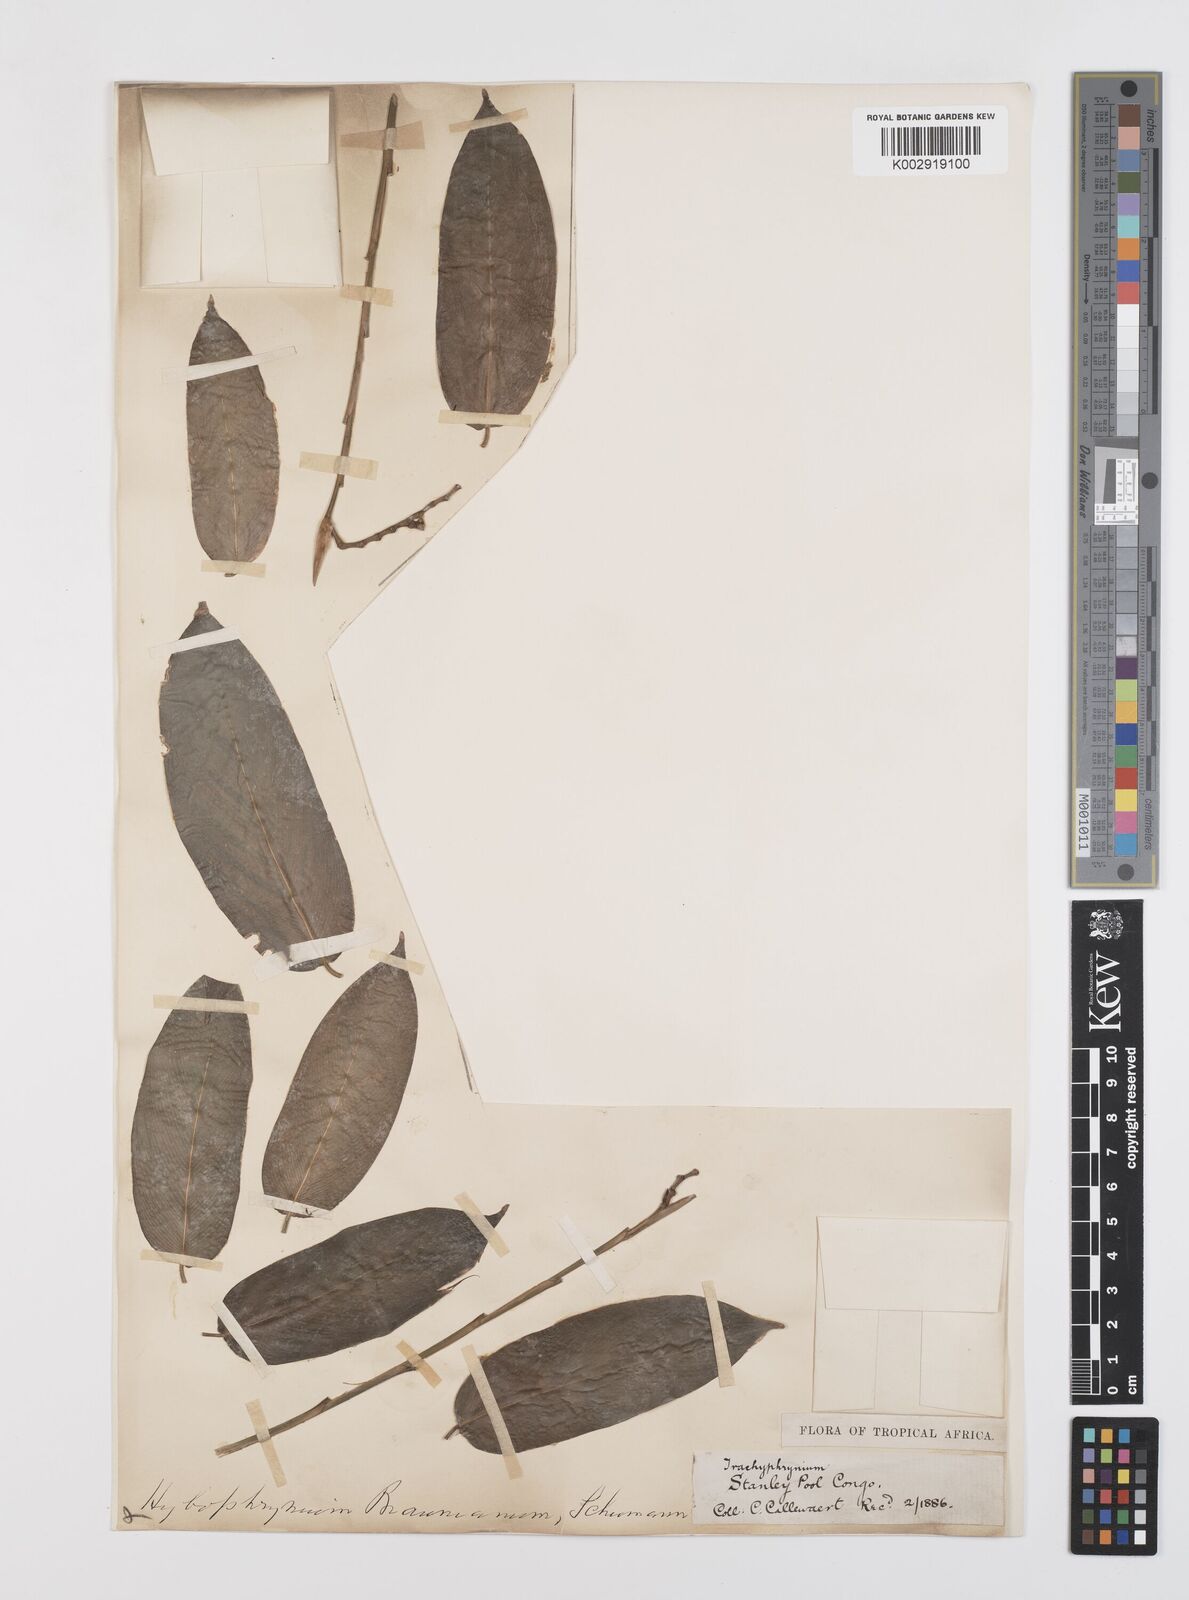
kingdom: Plantae
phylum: Tracheophyta
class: Liliopsida
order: Zingiberales
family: Marantaceae
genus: Trachyphrynium
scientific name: Trachyphrynium braunianum
